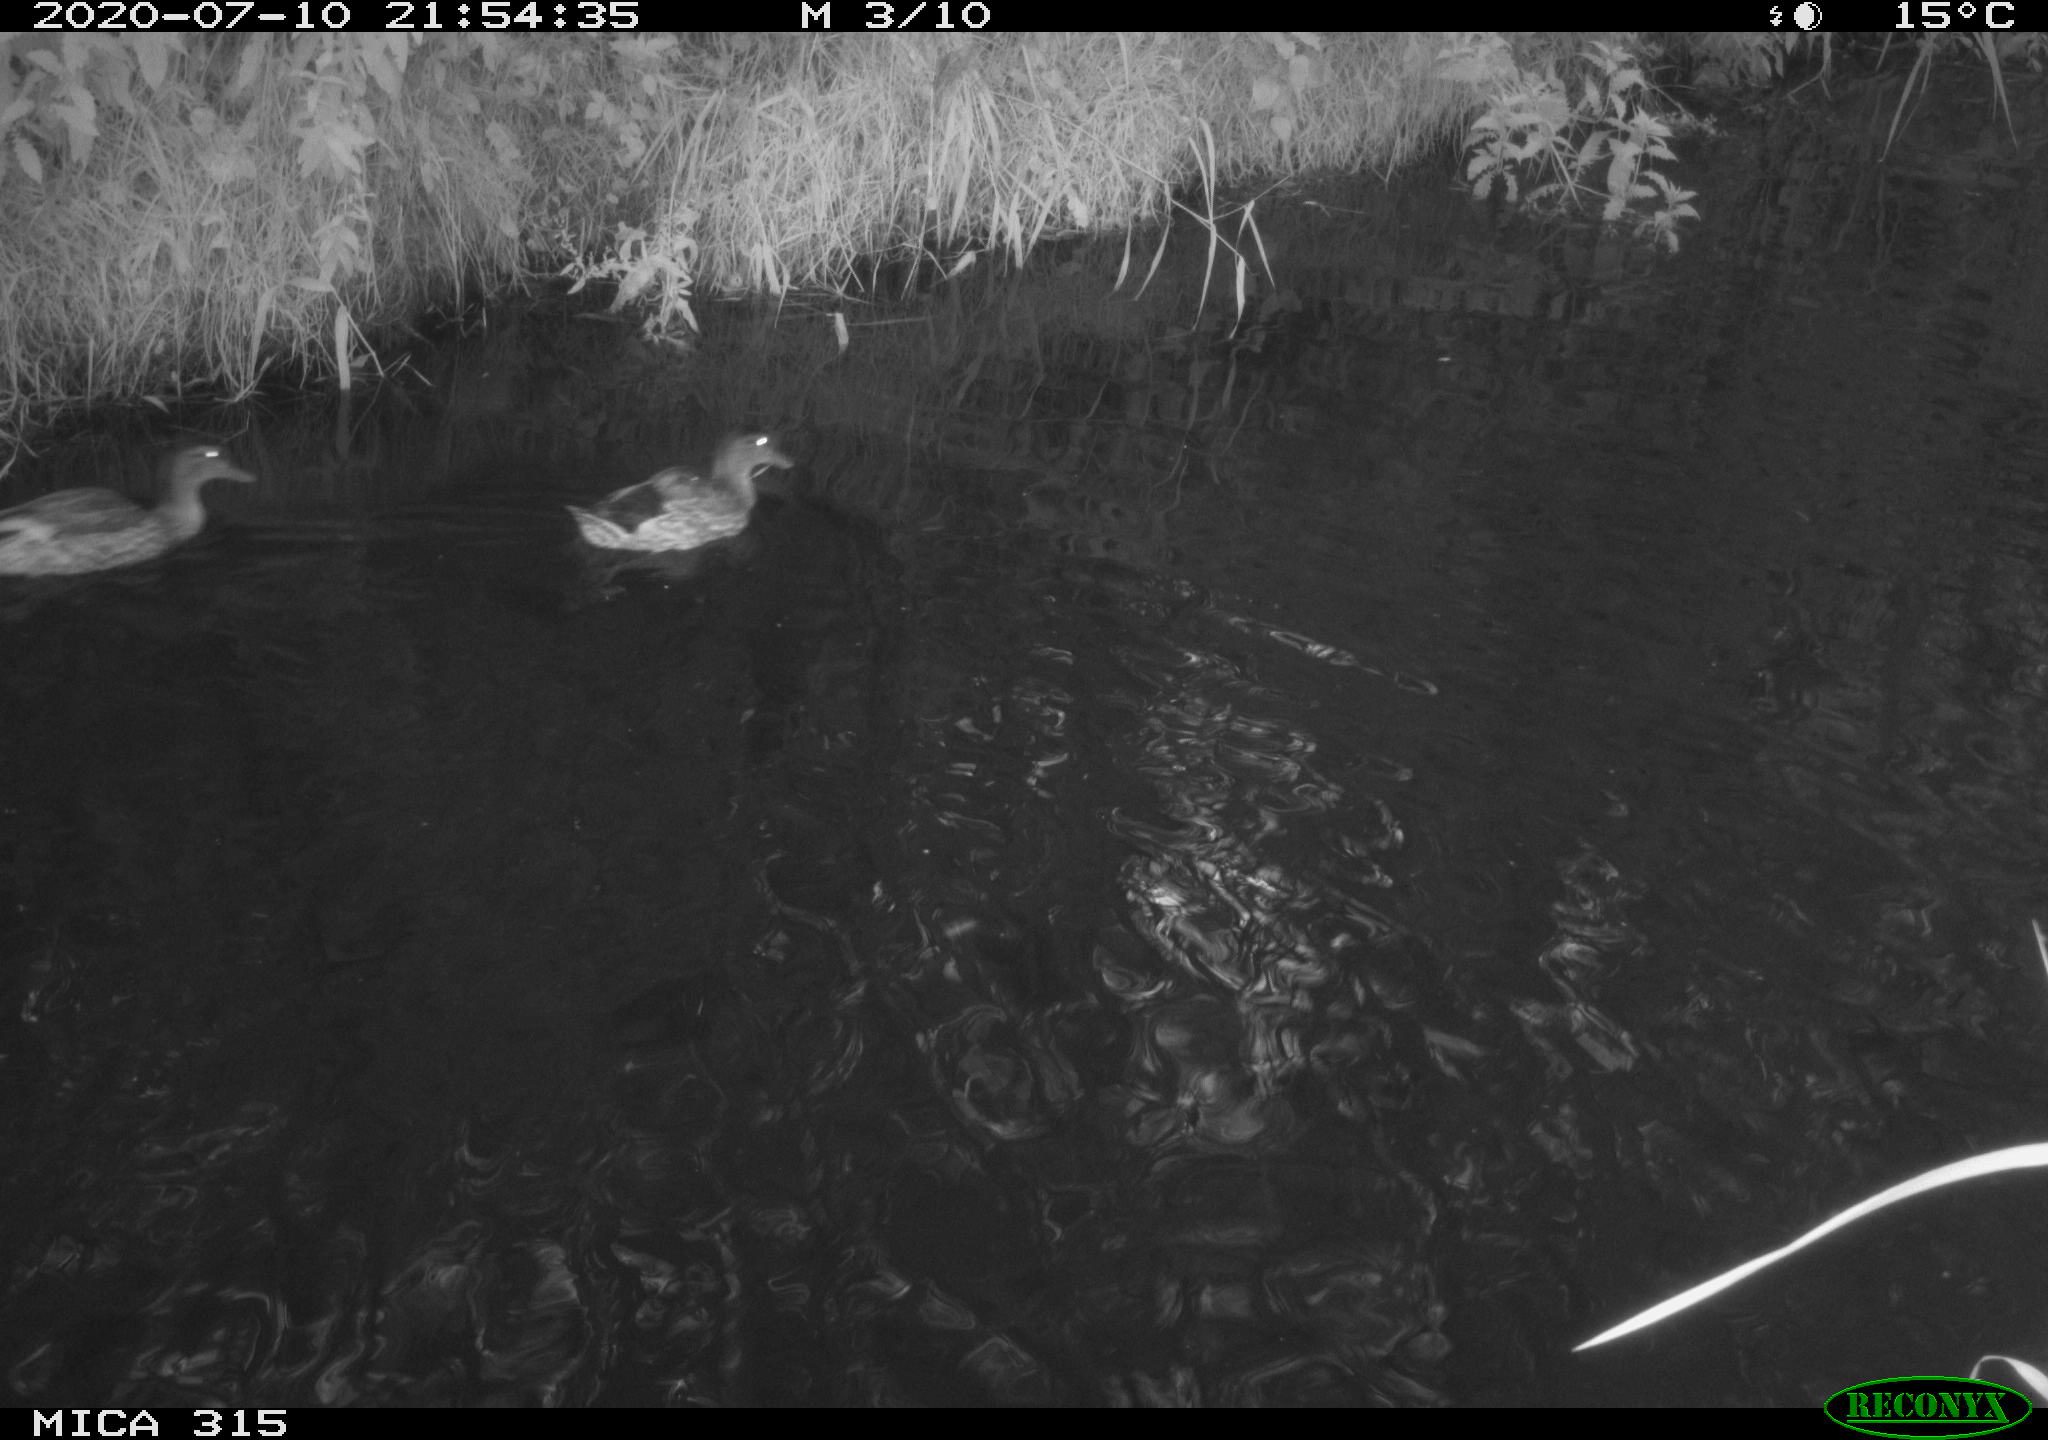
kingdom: Animalia
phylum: Chordata
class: Aves
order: Anseriformes
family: Anatidae
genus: Anas
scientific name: Anas platyrhynchos
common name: Mallard
